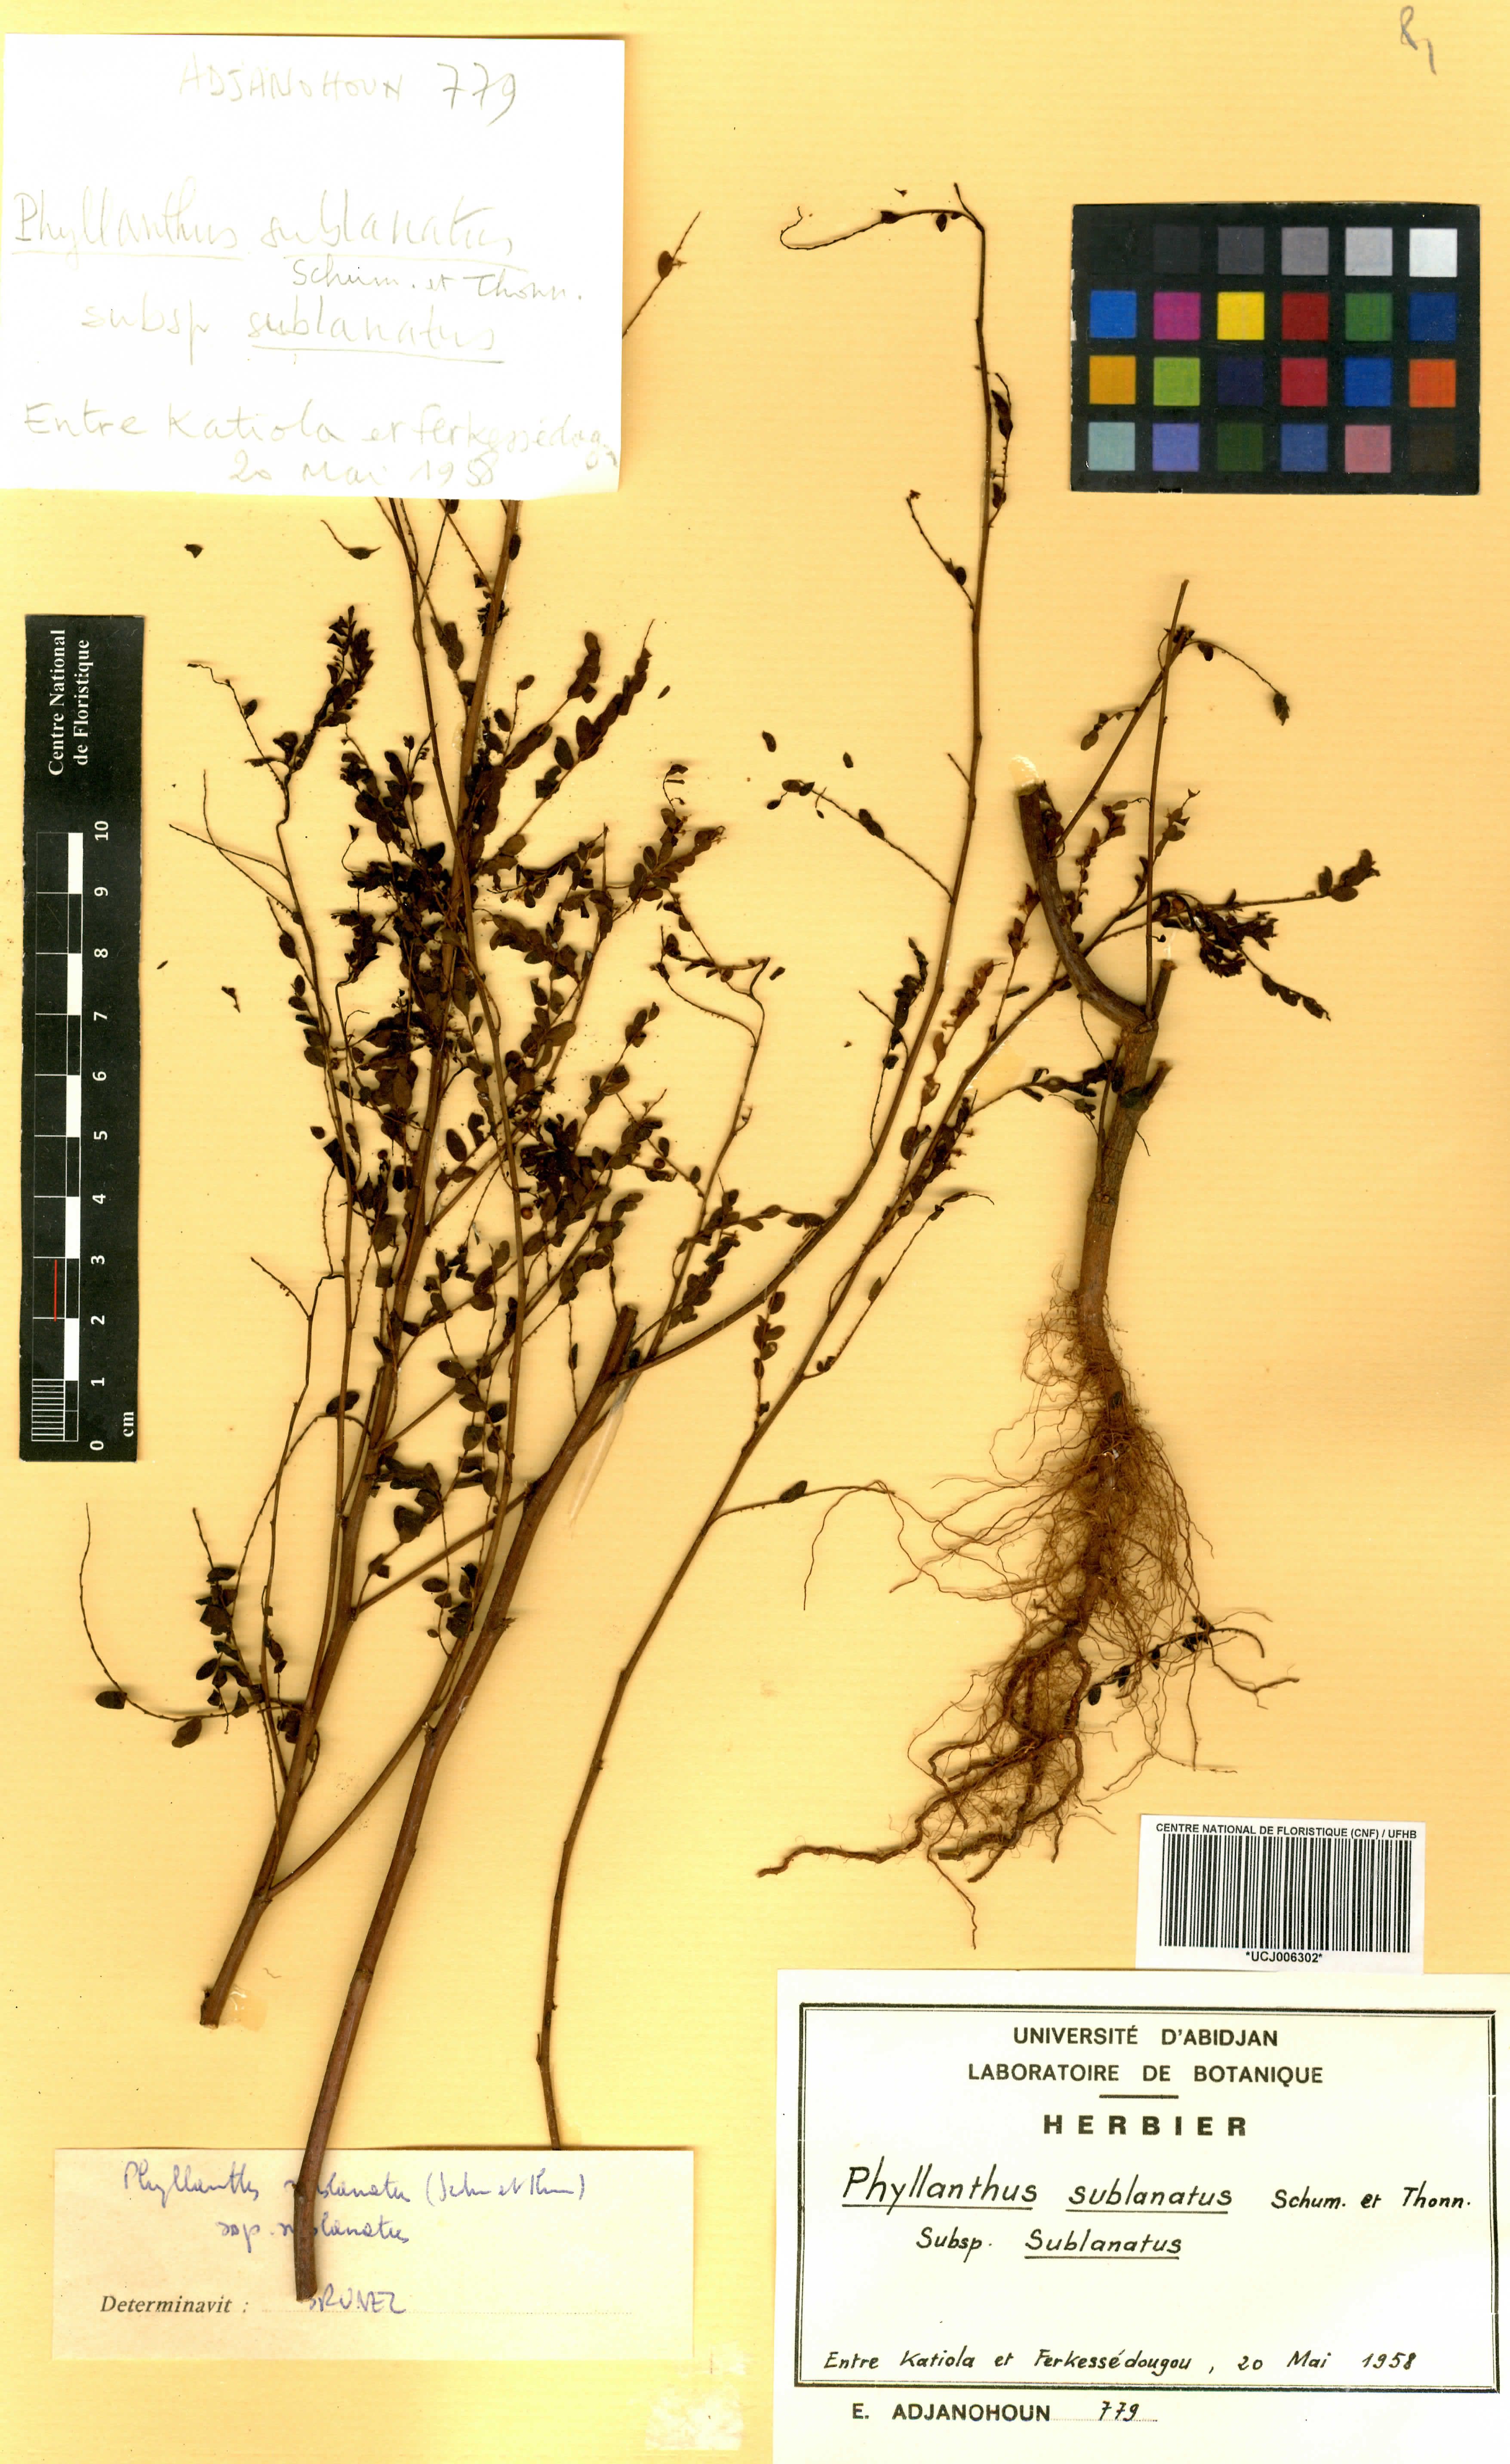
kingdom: Plantae
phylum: Tracheophyta
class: Magnoliopsida
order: Malpighiales
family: Phyllanthaceae
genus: Phyllanthus
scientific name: Phyllanthus sublanatus
